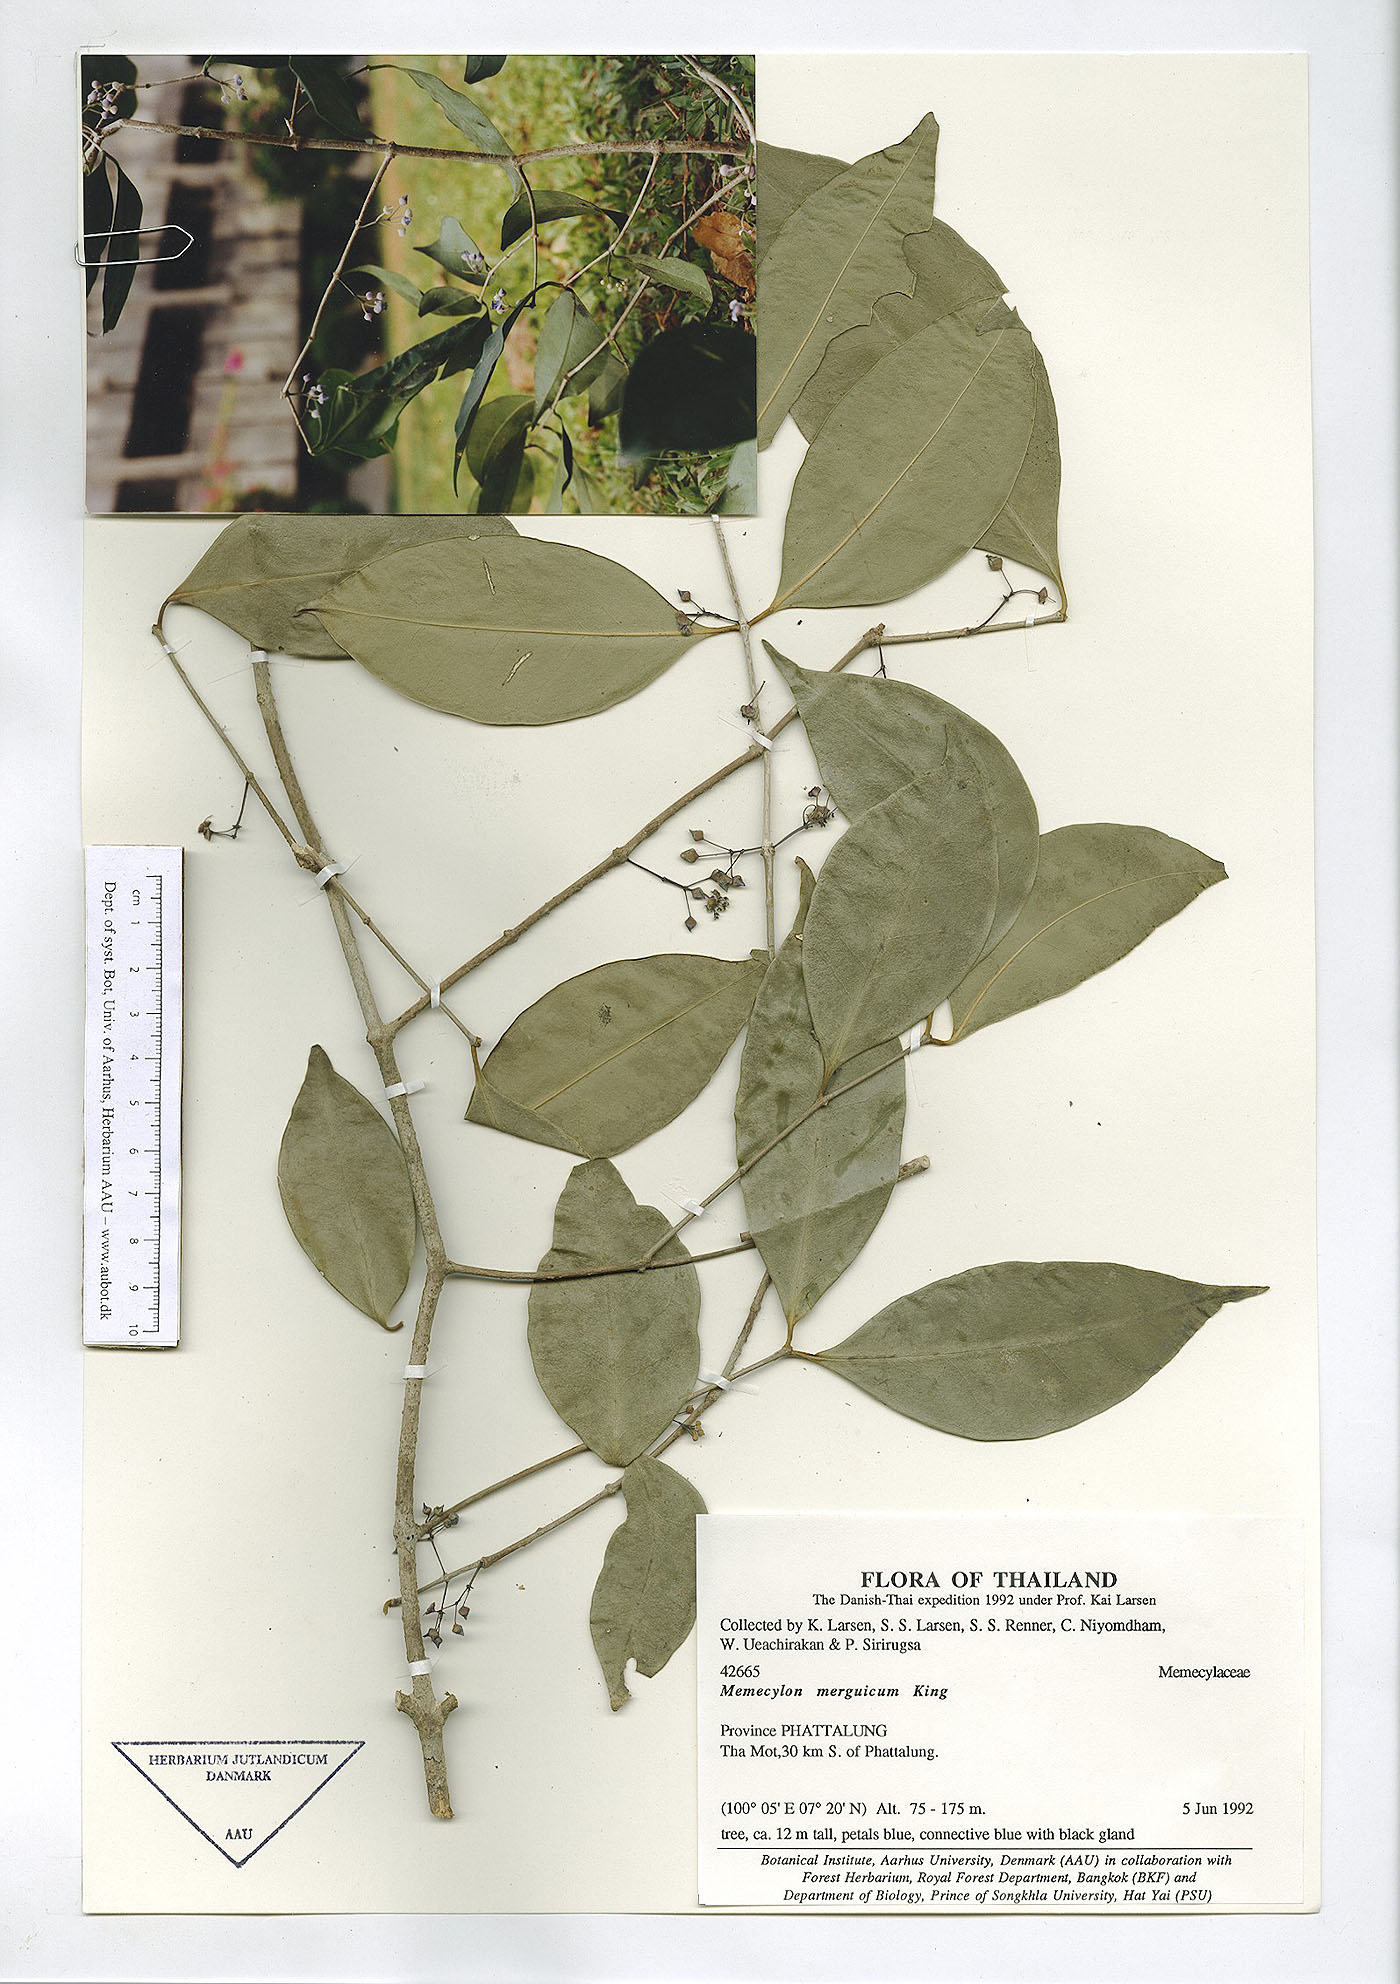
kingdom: Plantae
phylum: Tracheophyta
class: Magnoliopsida
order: Myrtales
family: Melastomataceae
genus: Memecylon
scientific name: Memecylon cantleyi
